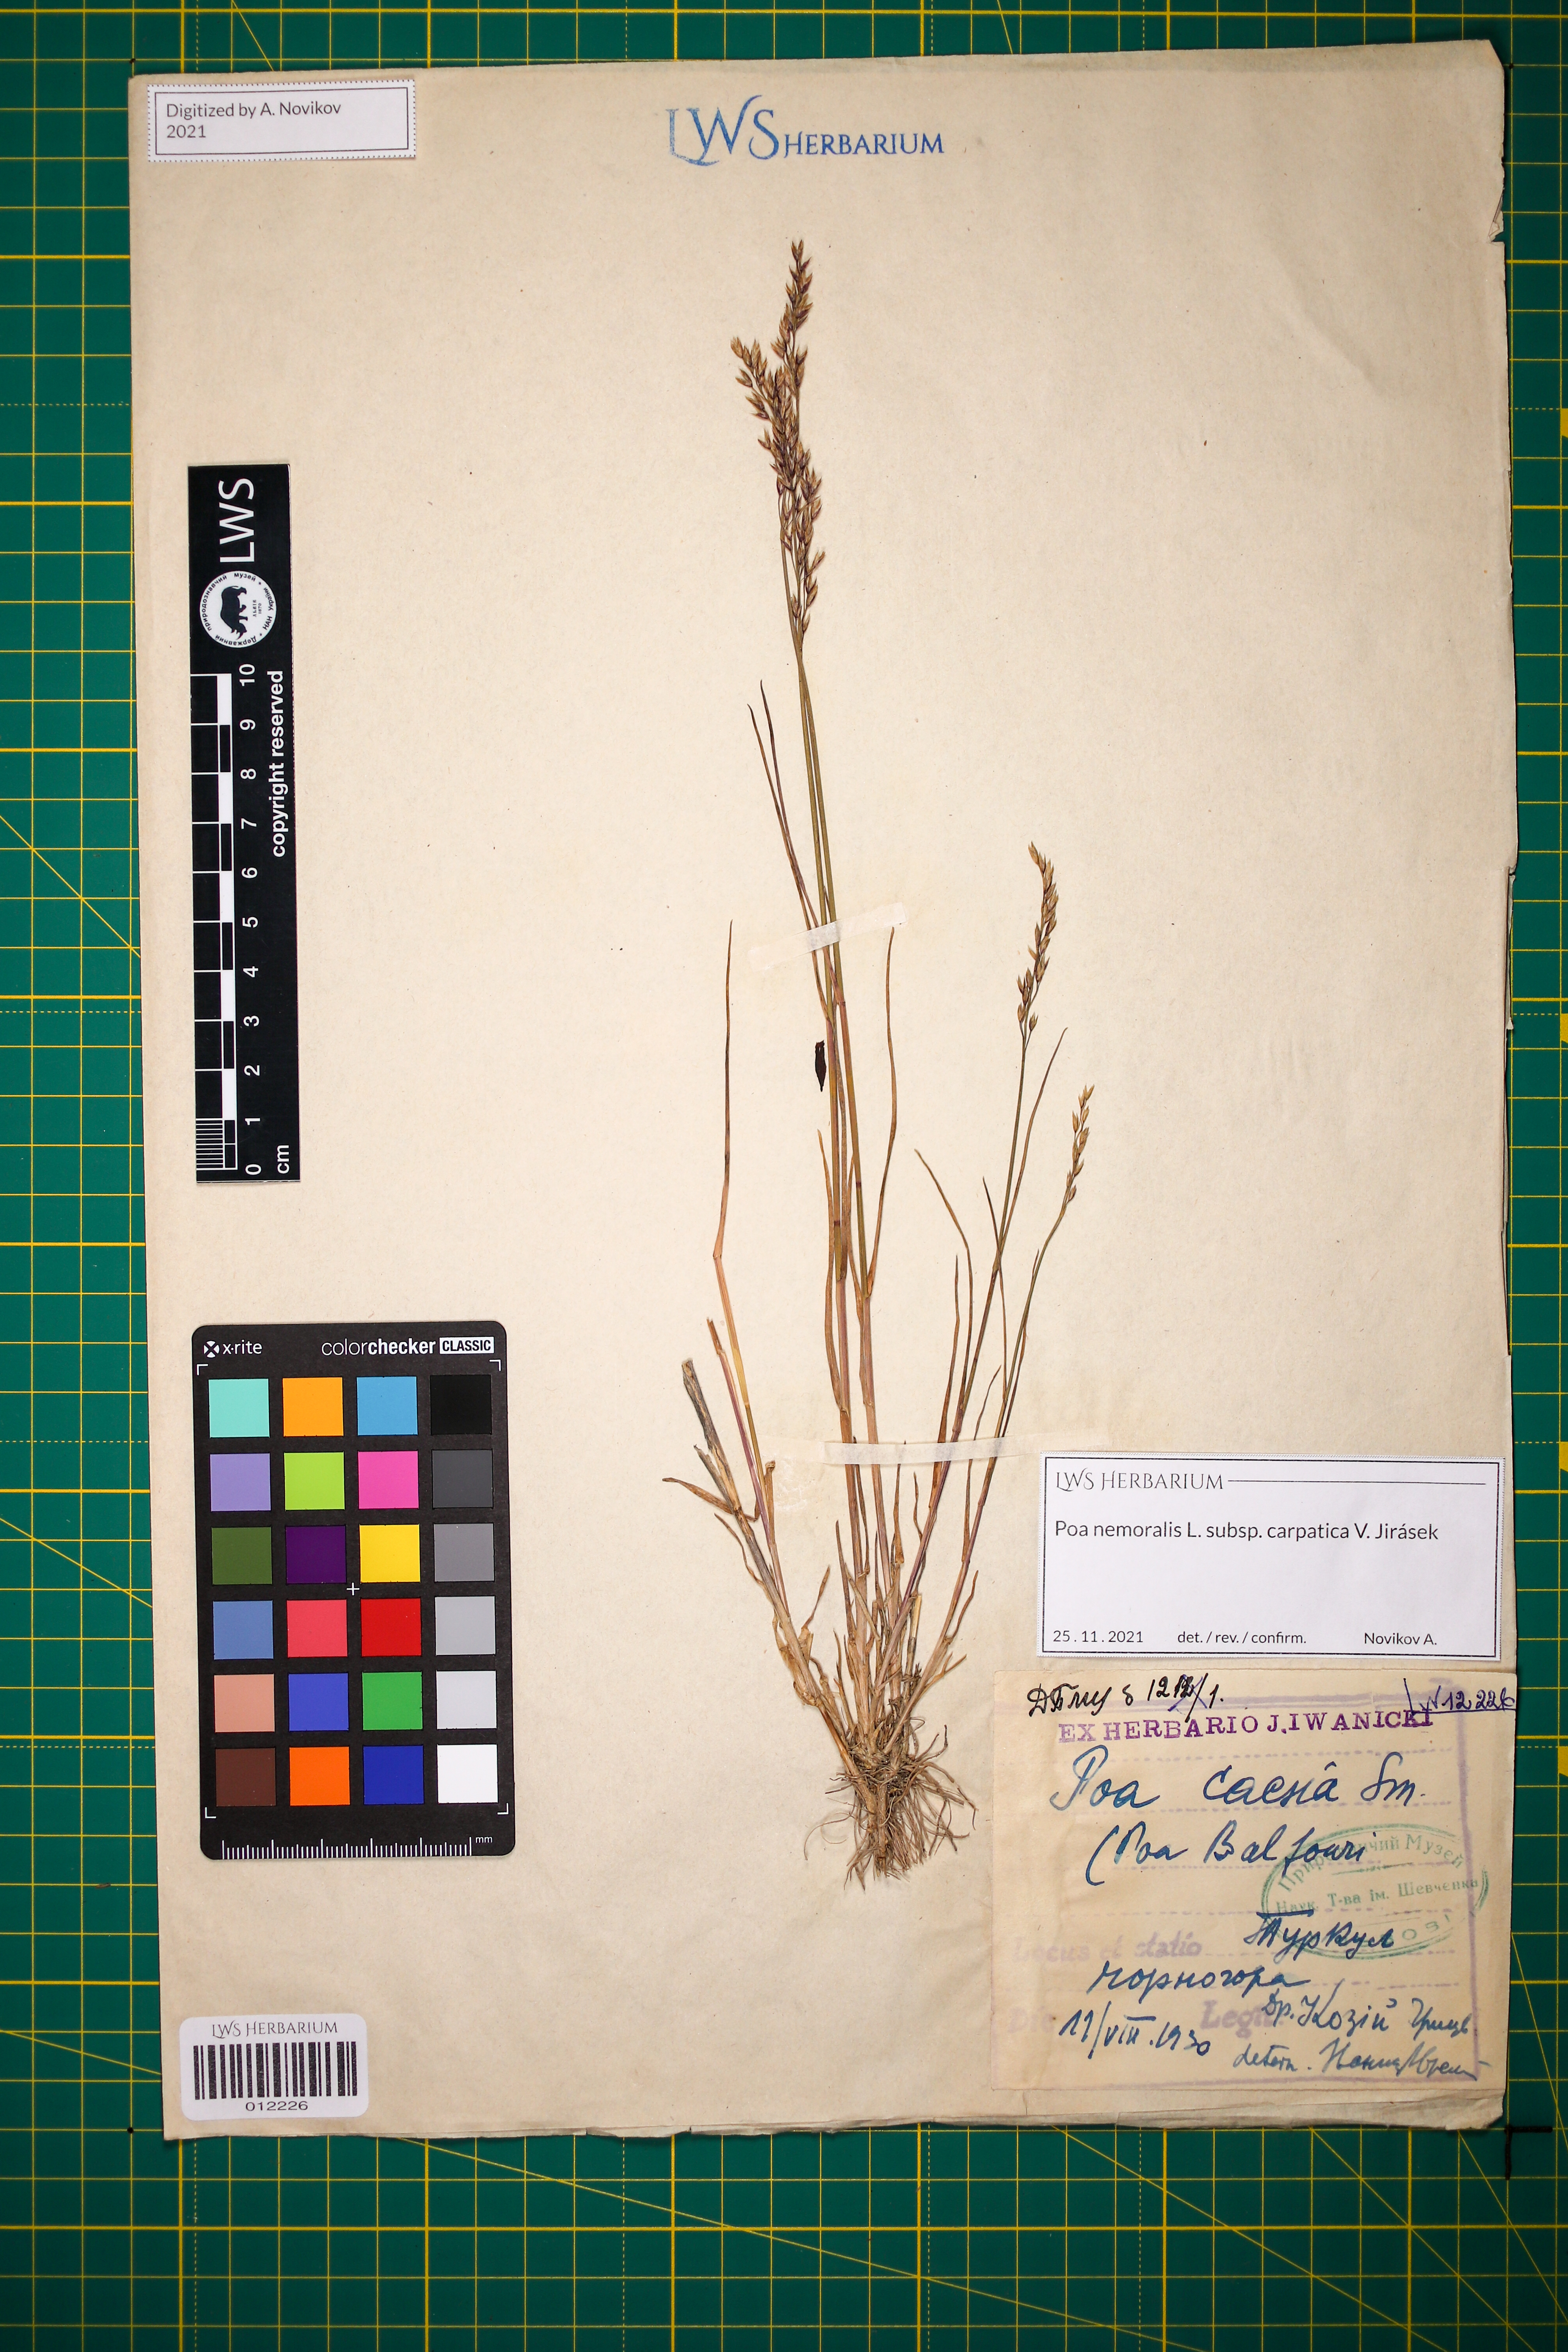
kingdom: Plantae
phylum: Tracheophyta
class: Liliopsida
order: Poales
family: Poaceae
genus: Poa
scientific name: Poa carpatica
